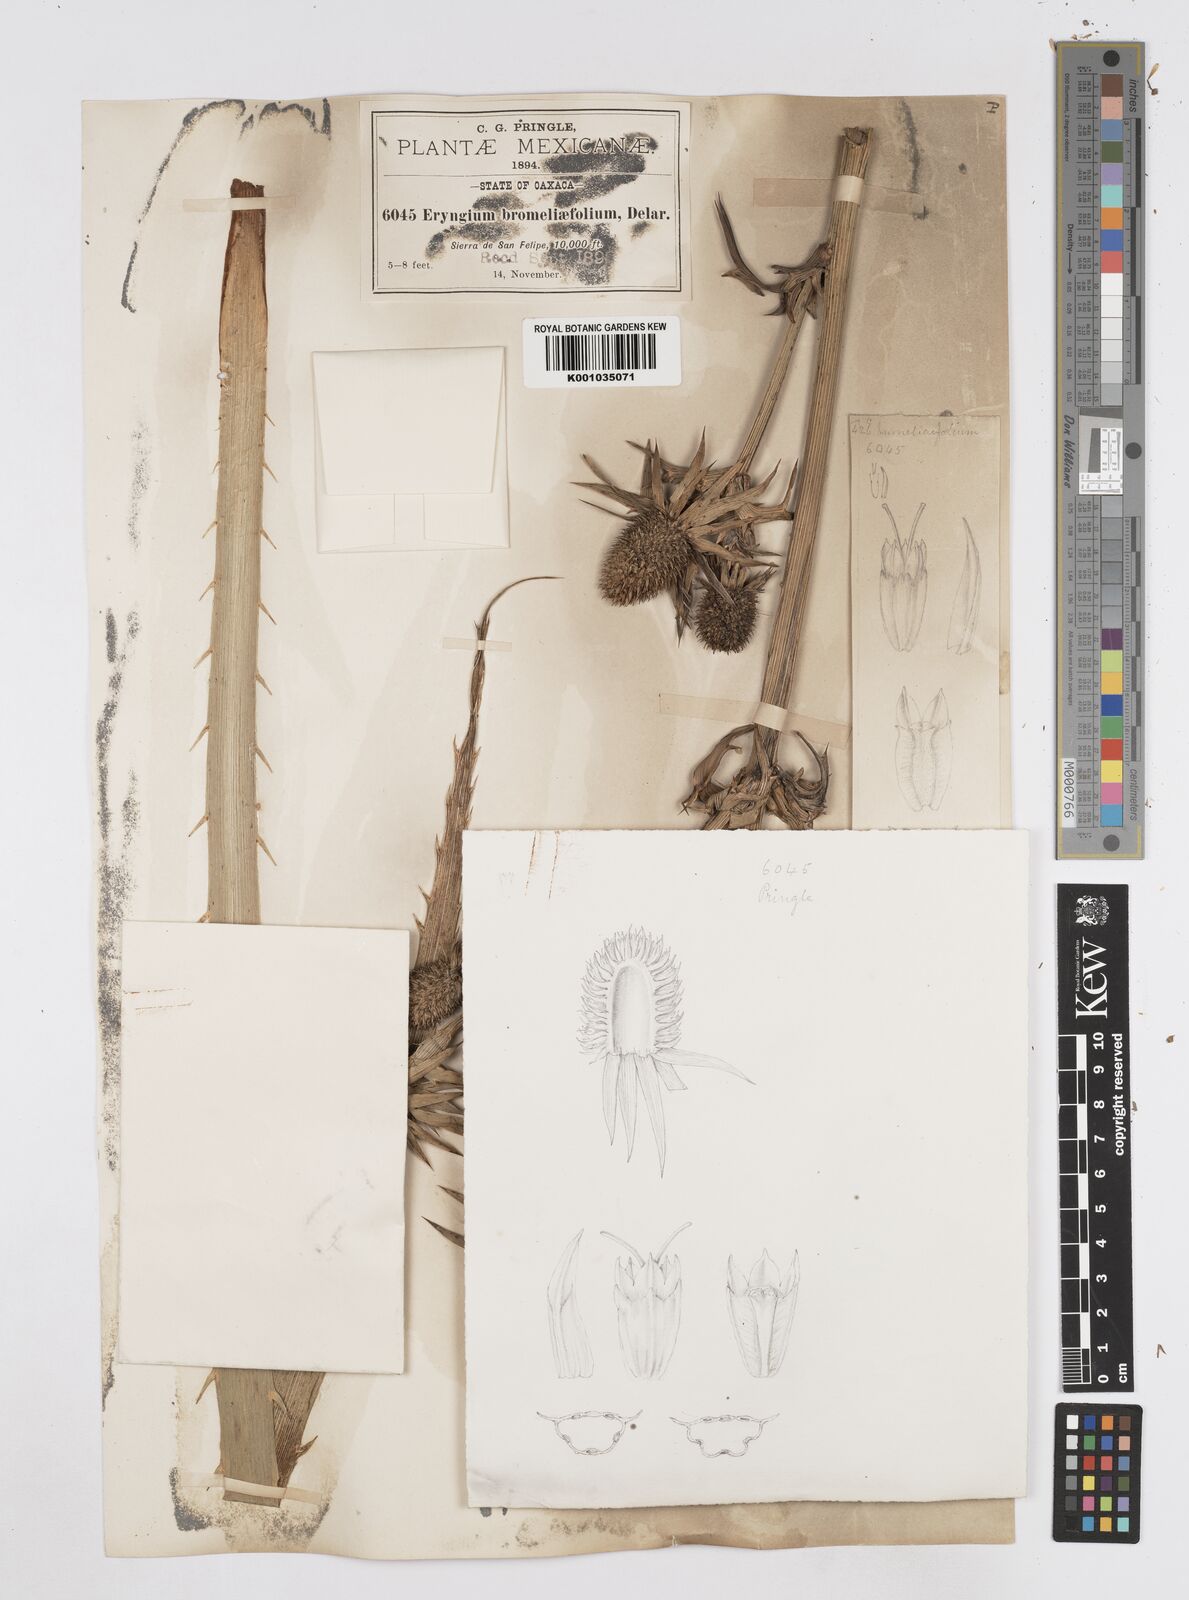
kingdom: Plantae
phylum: Tracheophyta
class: Magnoliopsida
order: Apiales
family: Apiaceae
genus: Eryngium
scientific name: Eryngium monocephalum
